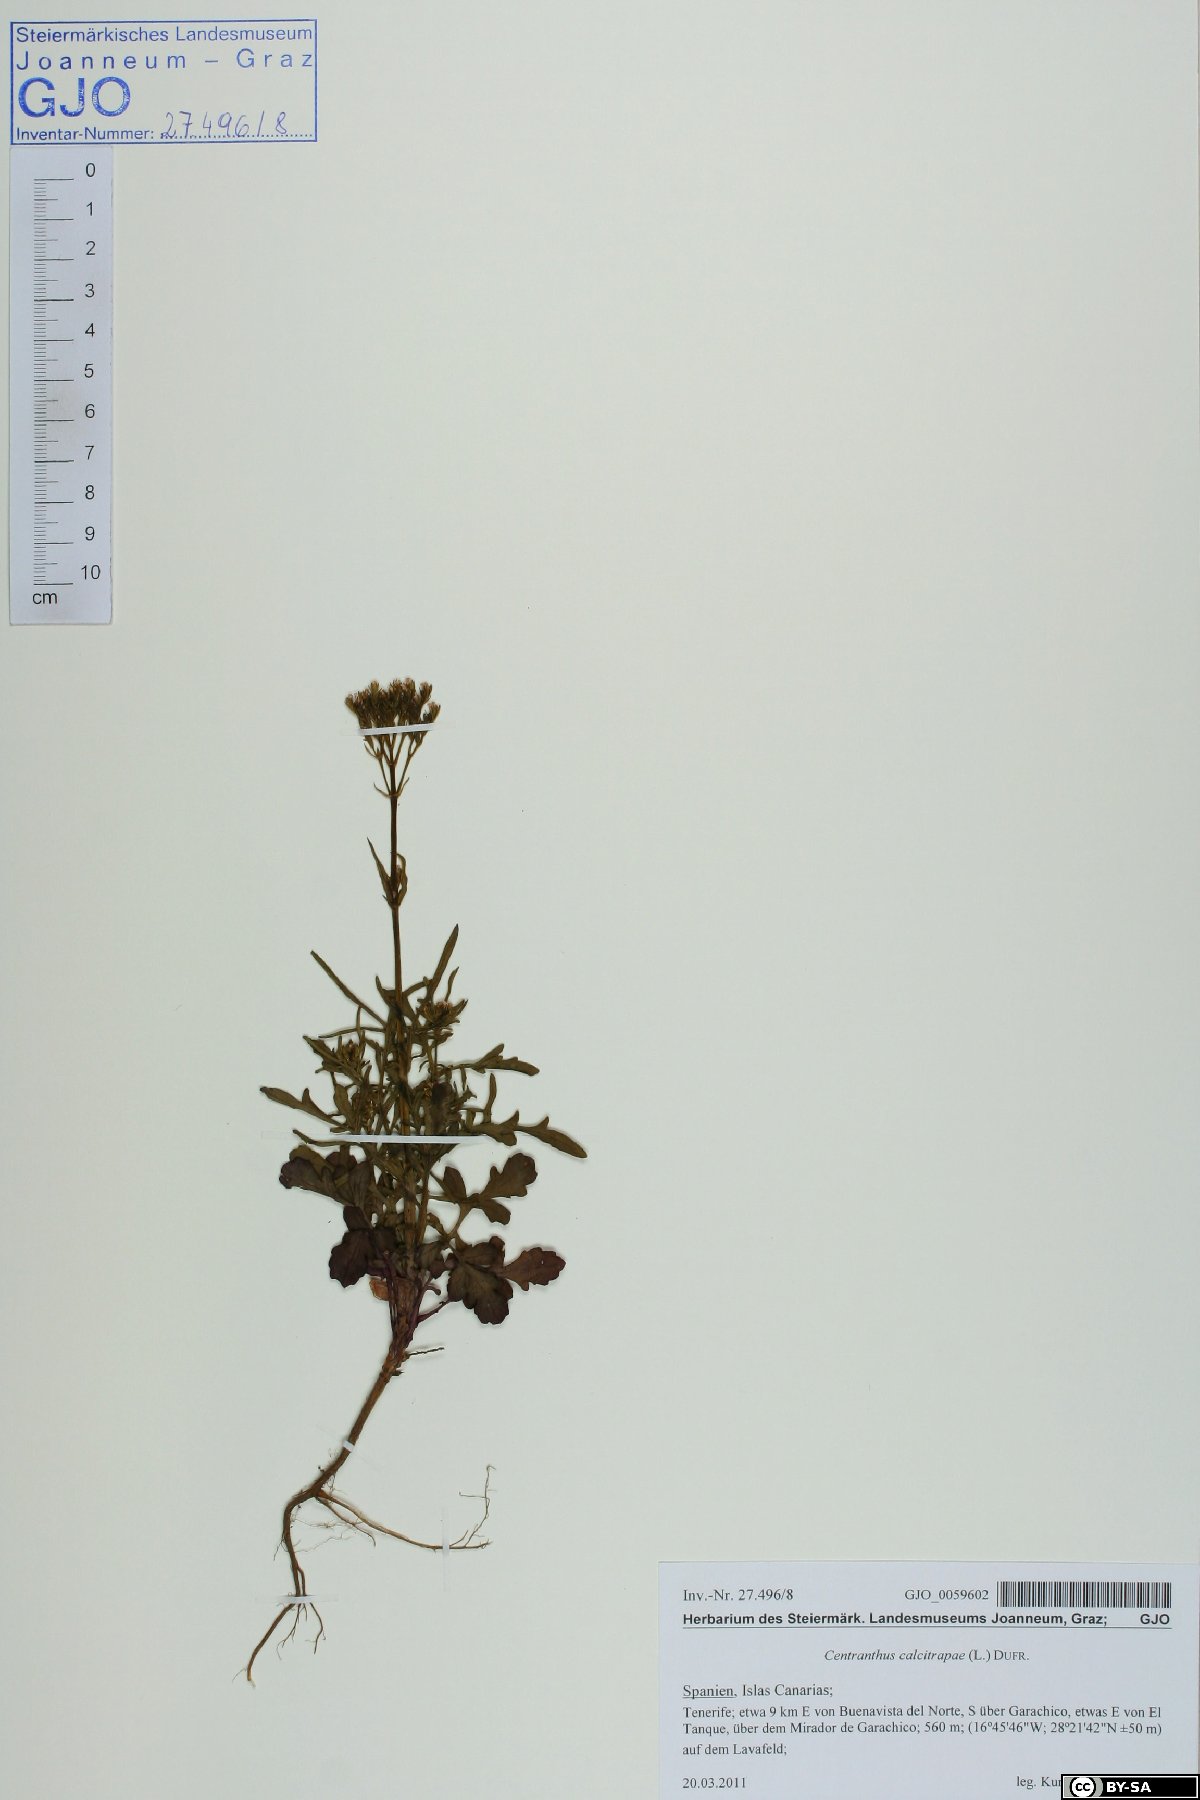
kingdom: Plantae
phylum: Tracheophyta
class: Magnoliopsida
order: Dipsacales
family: Caprifoliaceae
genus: Centranthus
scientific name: Centranthus calcitrapae
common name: Annual valerian
